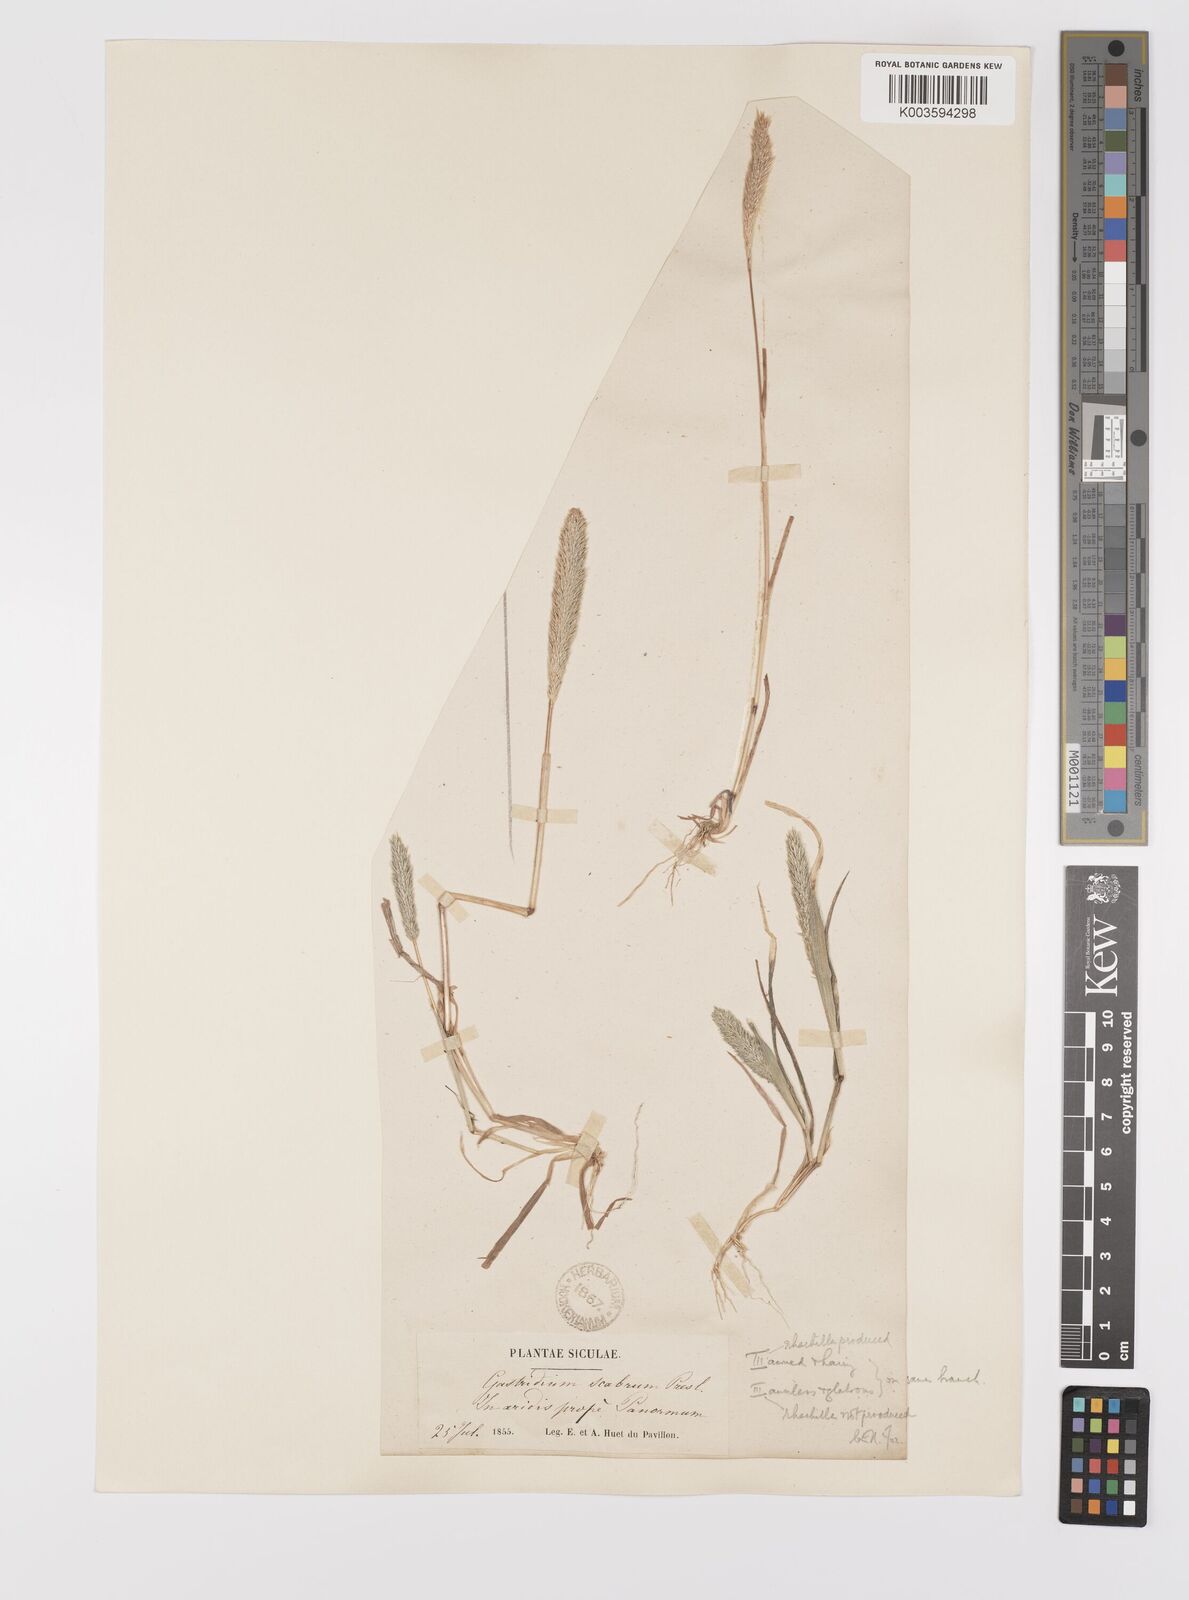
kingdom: Plantae
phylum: Tracheophyta
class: Liliopsida
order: Poales
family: Poaceae
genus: Gastridium
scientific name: Gastridium ventricosum
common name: Nit-grass
